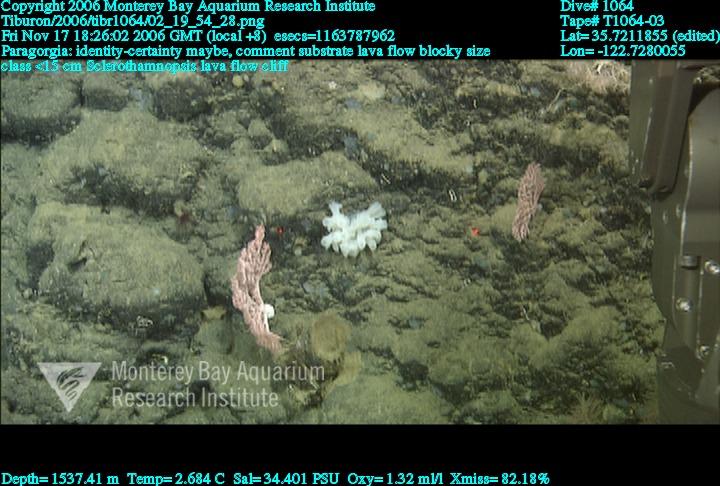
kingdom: Animalia
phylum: Porifera
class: Hexactinellida
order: Sceptrulophora
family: Tretodictyidae
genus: Sclerothamnopsis
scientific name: Sclerothamnopsis
